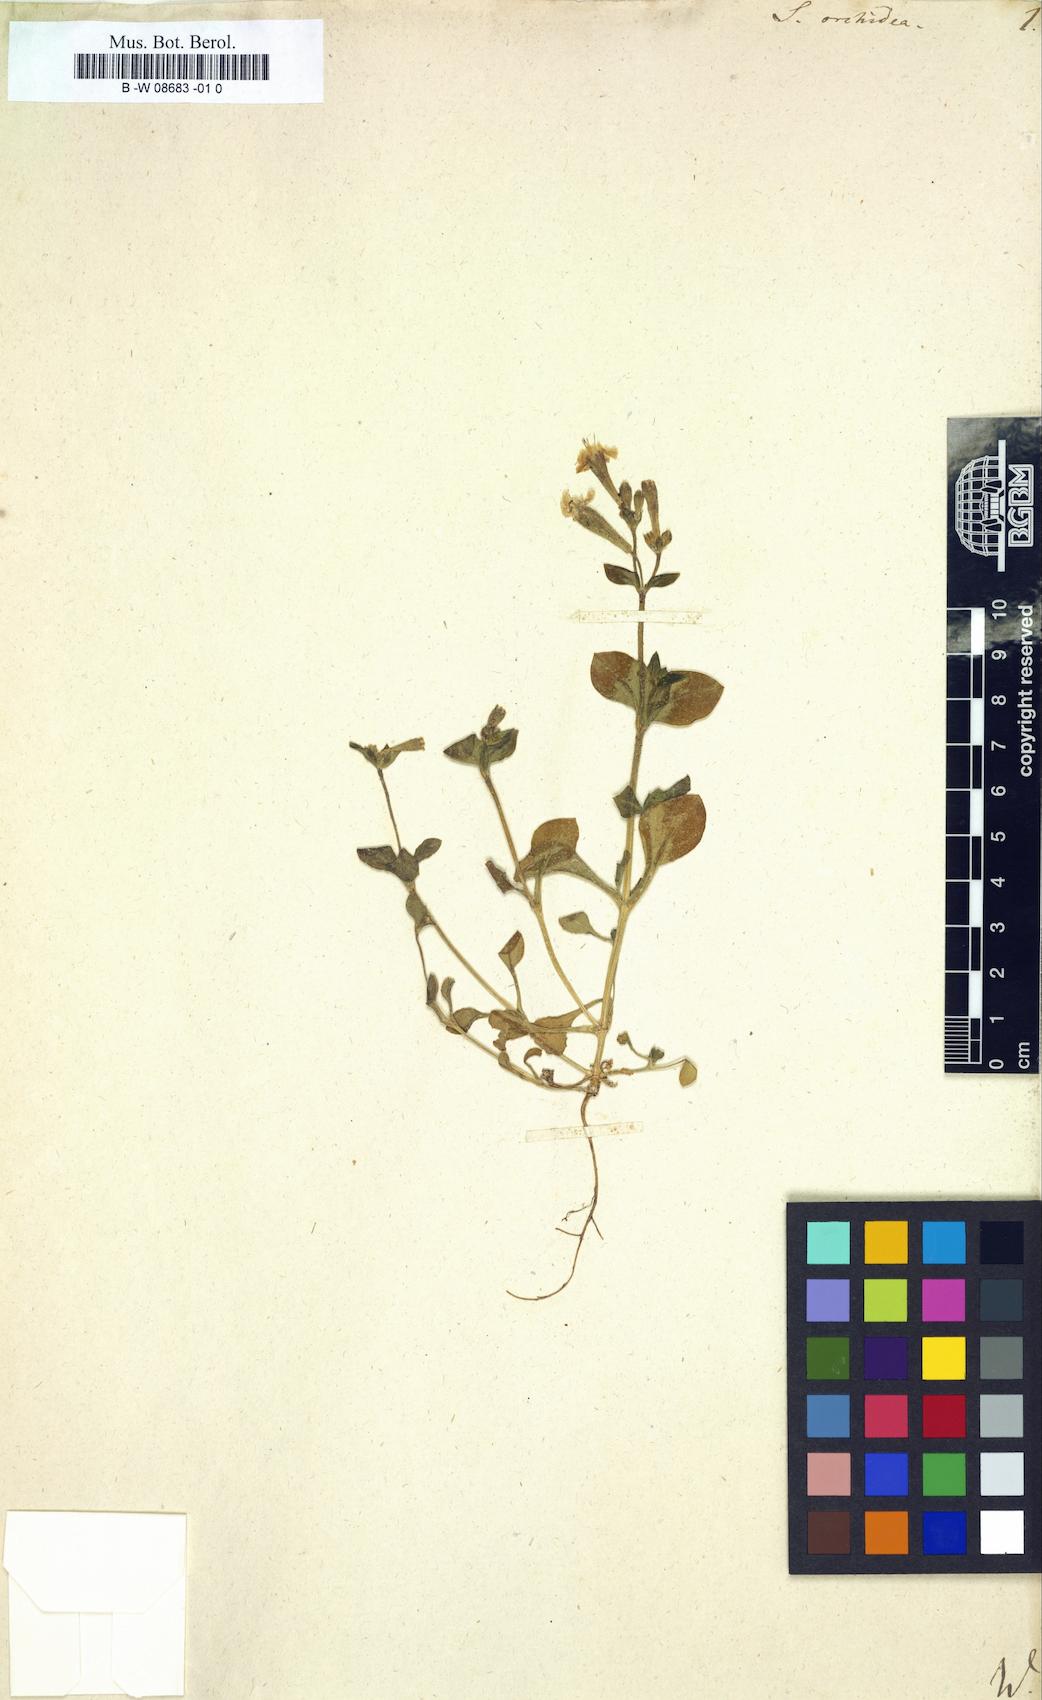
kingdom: Plantae
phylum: Tracheophyta
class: Magnoliopsida
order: Caryophyllales
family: Caryophyllaceae
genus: Silene
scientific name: Silene
